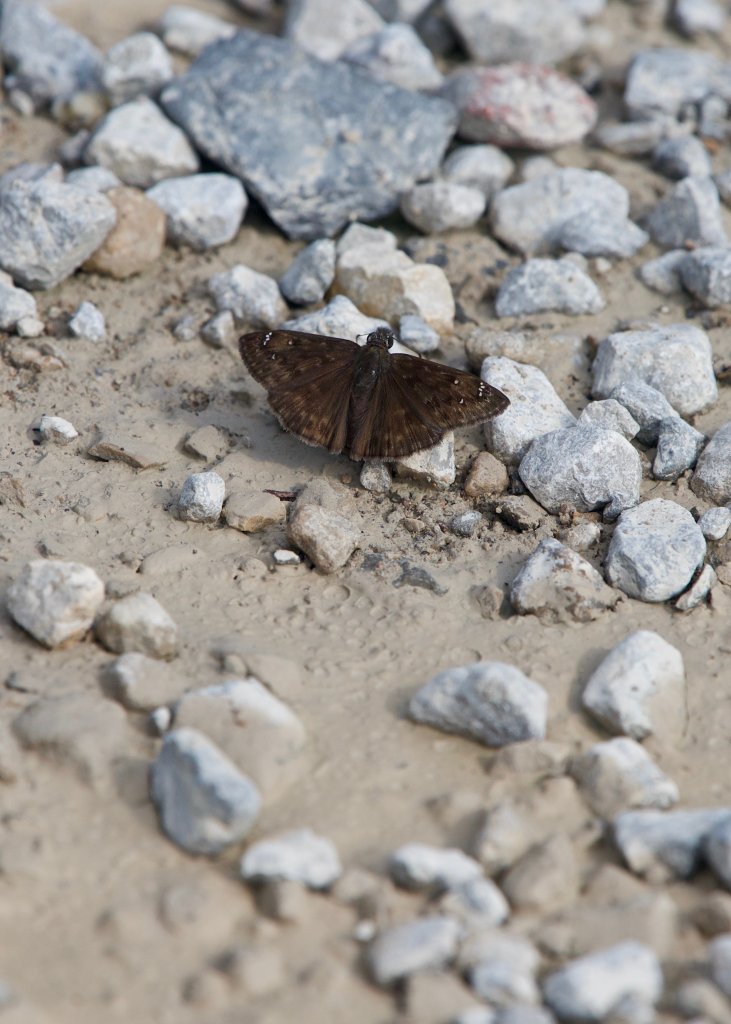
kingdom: Animalia
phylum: Arthropoda
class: Insecta
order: Lepidoptera
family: Hesperiidae
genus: Gesta
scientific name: Gesta
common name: Horace's Duskywing
